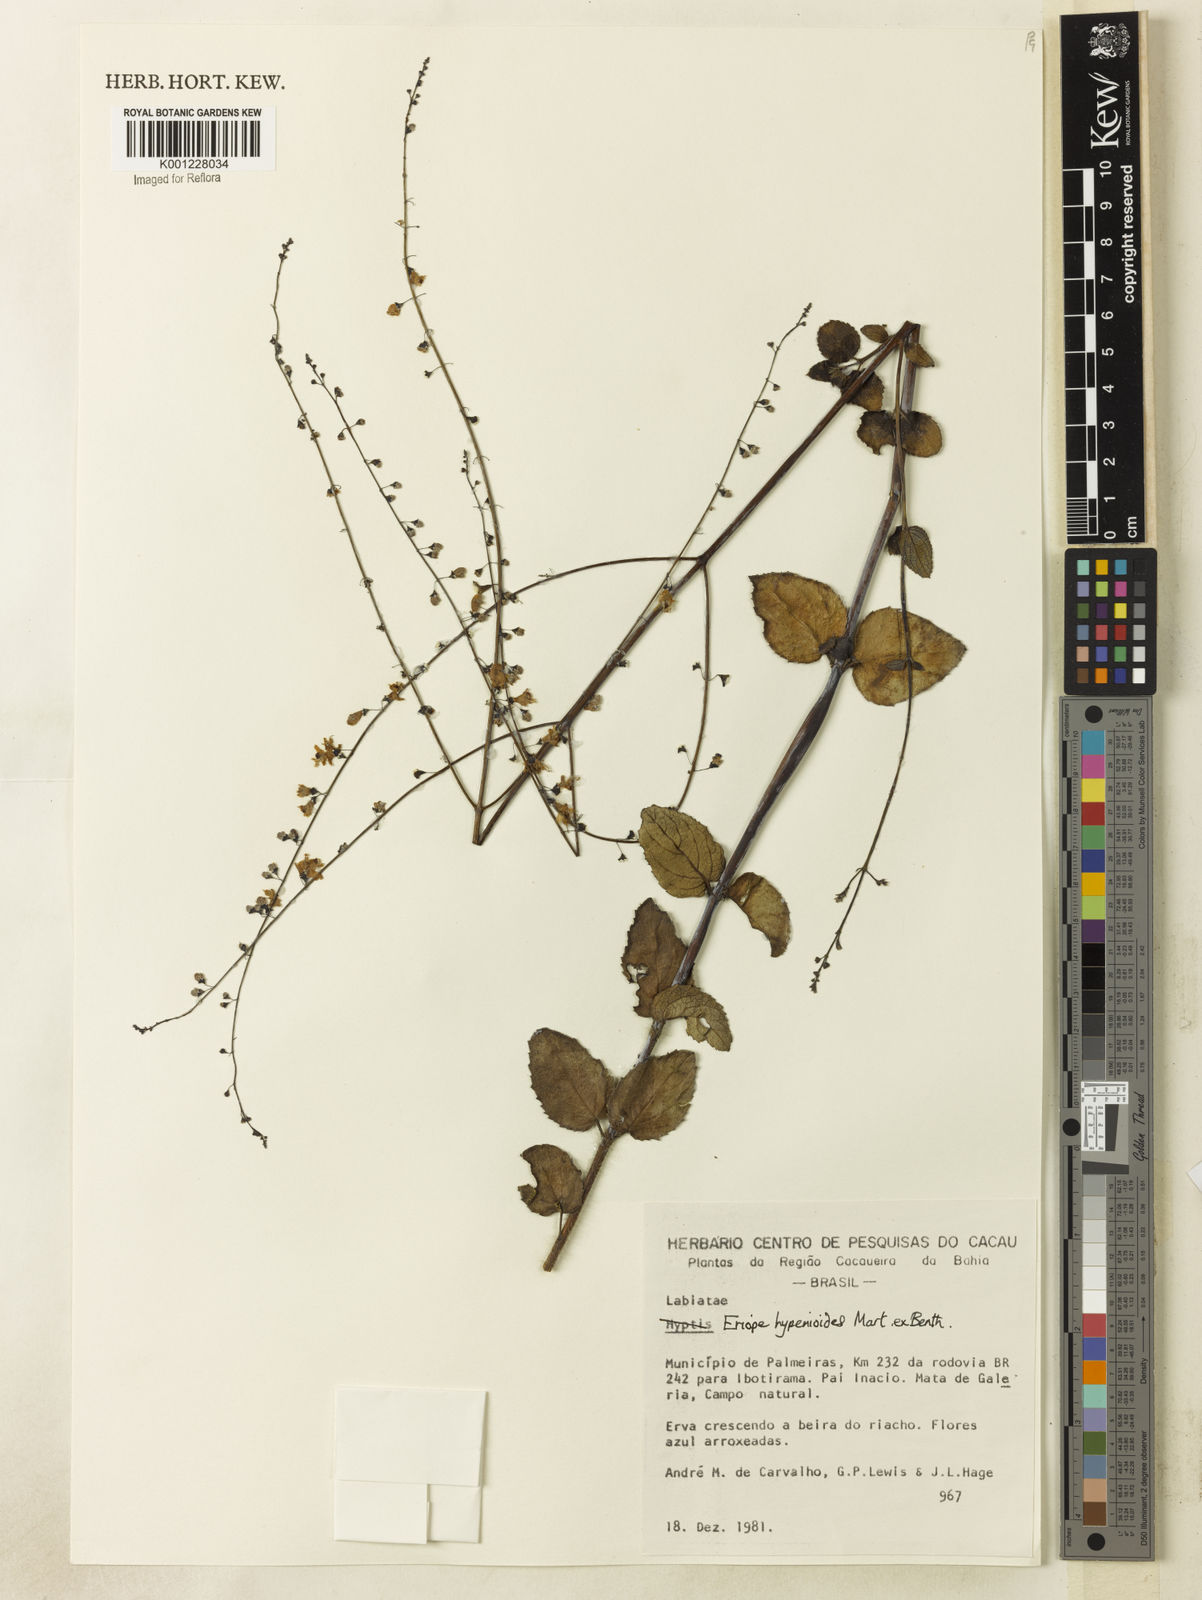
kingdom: Plantae
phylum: Tracheophyta
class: Magnoliopsida
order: Lamiales
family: Lamiaceae
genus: Eriope
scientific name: Eriope hypenioides
